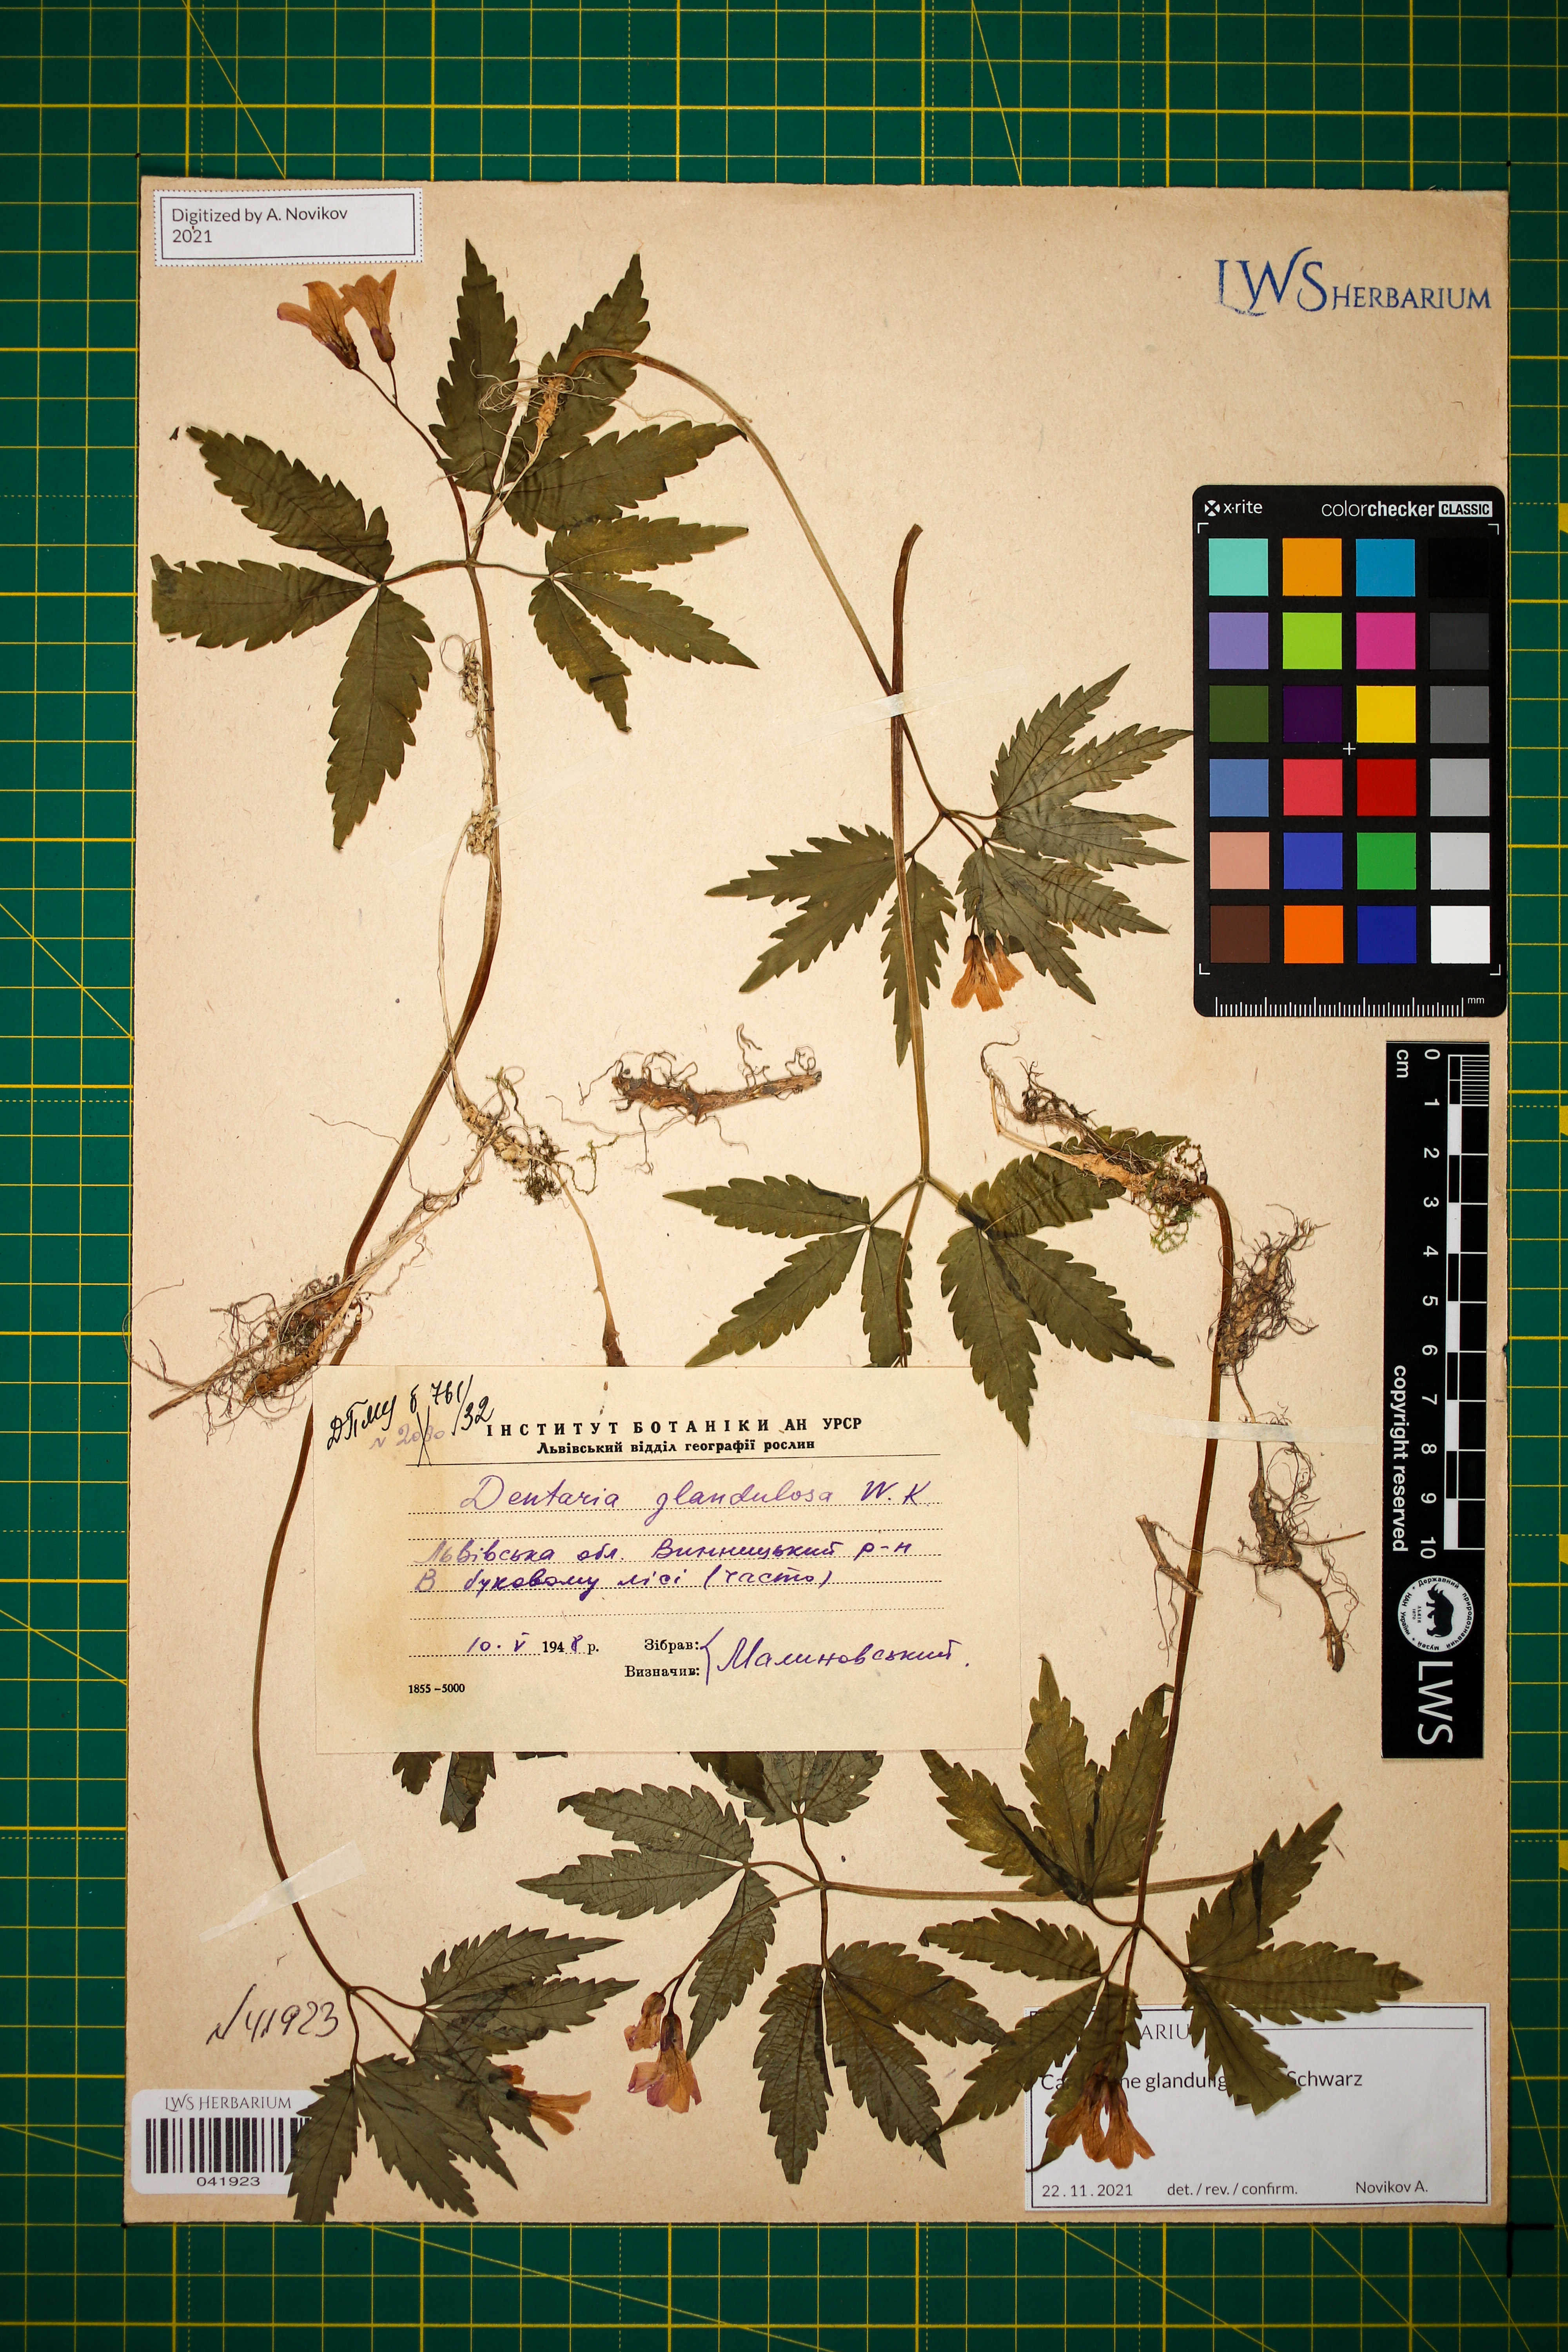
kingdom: Plantae
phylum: Tracheophyta
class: Magnoliopsida
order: Brassicales
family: Brassicaceae
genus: Cardamine
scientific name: Cardamine glanduligera
